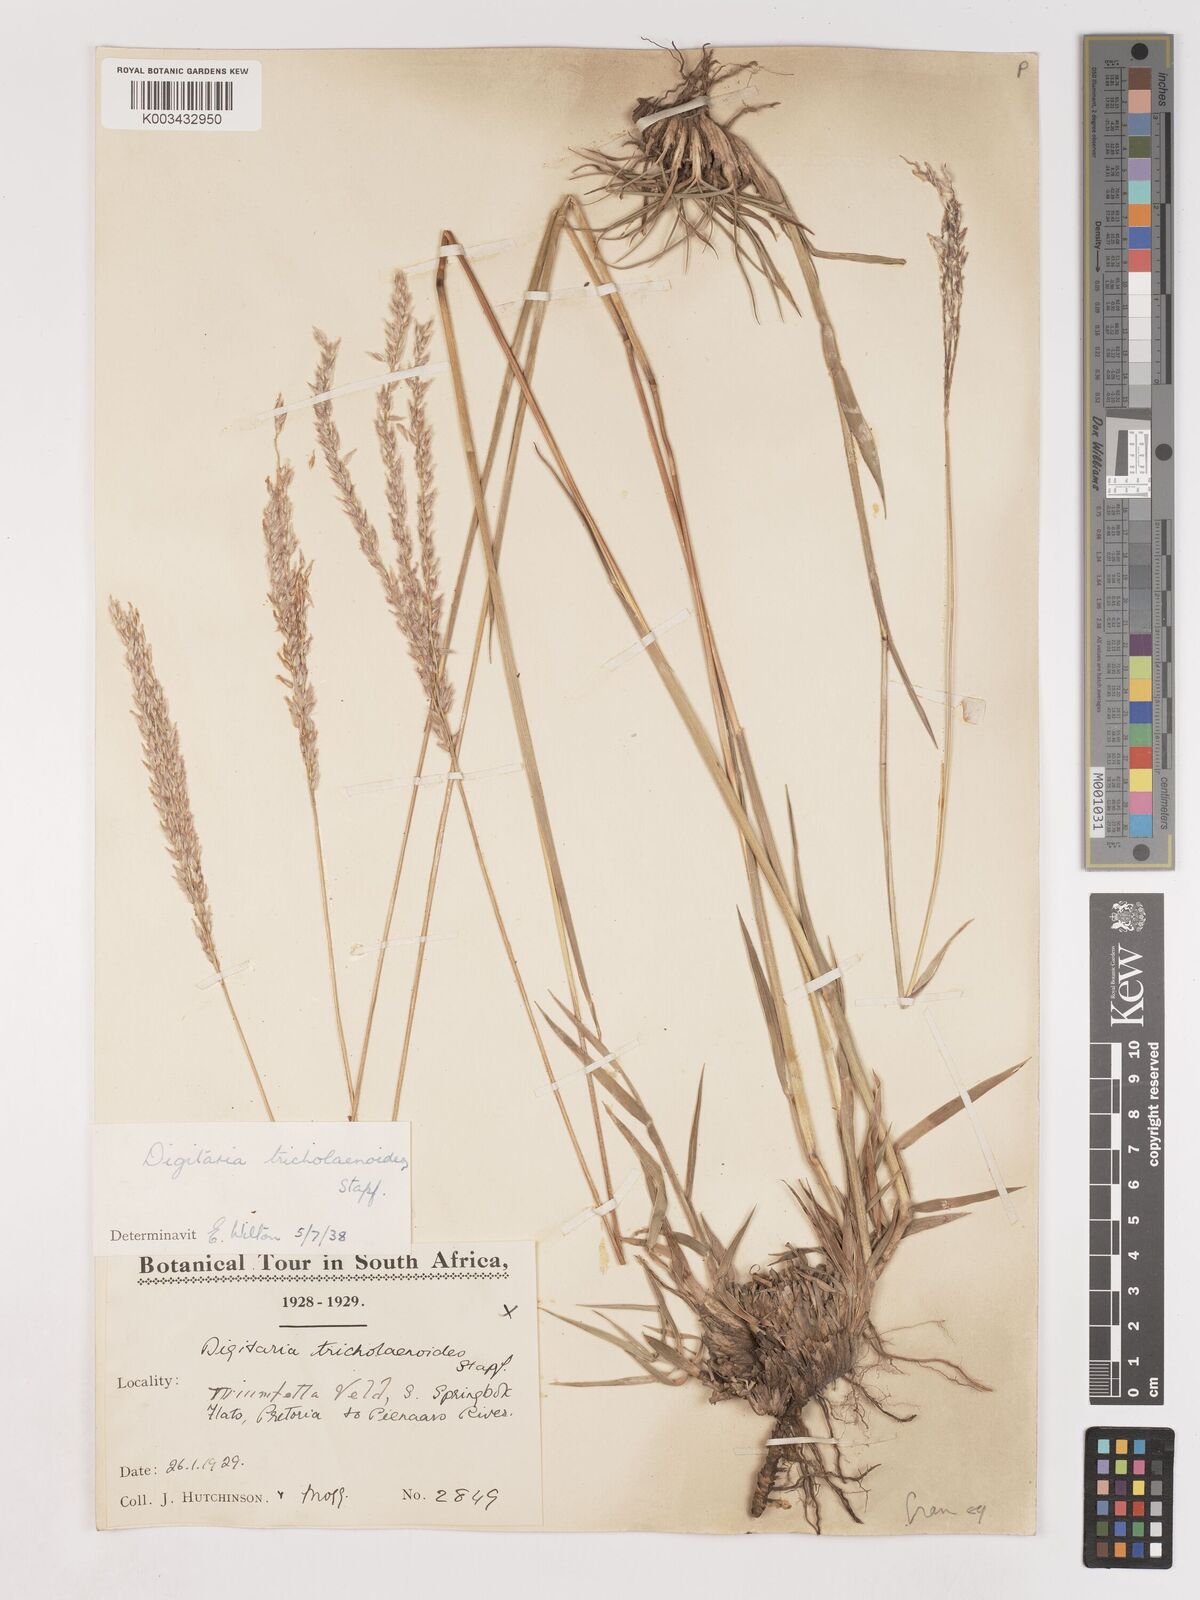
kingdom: Plantae
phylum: Tracheophyta
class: Liliopsida
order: Poales
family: Poaceae
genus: Digitaria
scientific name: Digitaria tricholaenoides
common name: Purple finger grass
